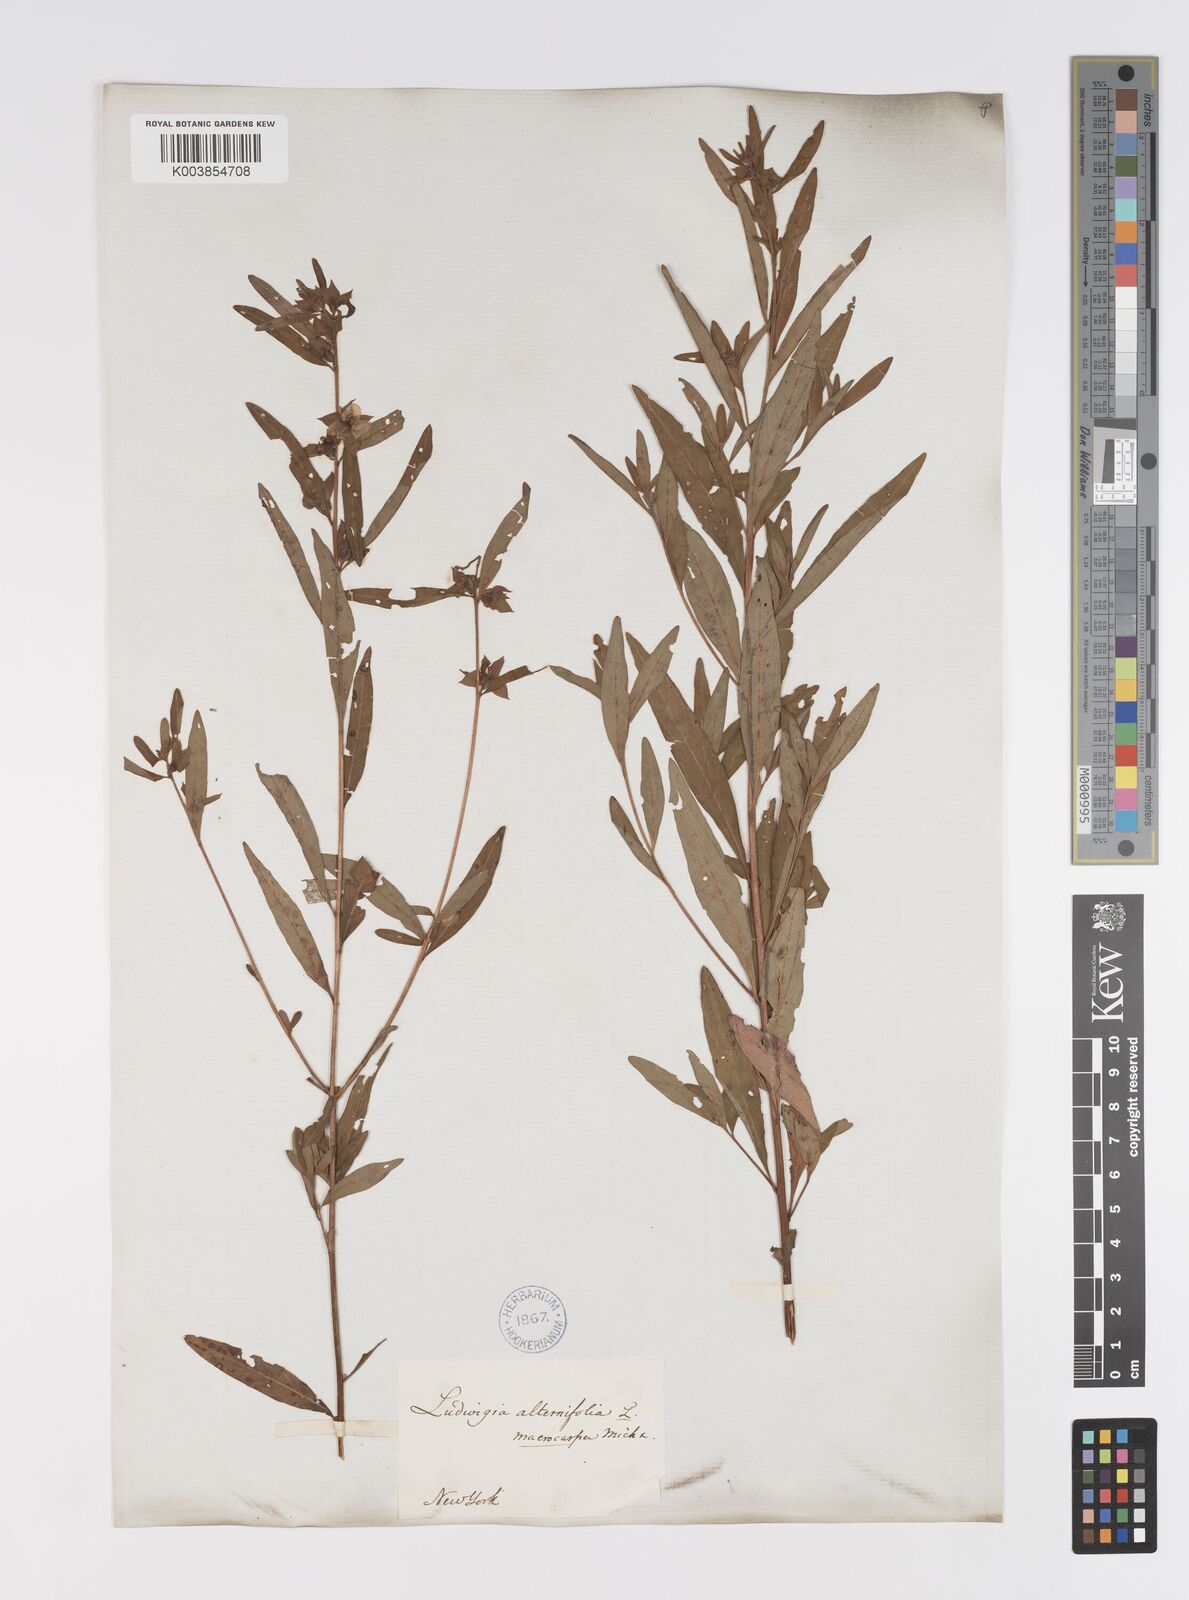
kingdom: Plantae
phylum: Tracheophyta
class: Magnoliopsida
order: Myrtales
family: Onagraceae
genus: Ludwigia
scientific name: Ludwigia alternifolia
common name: Rattlebox
